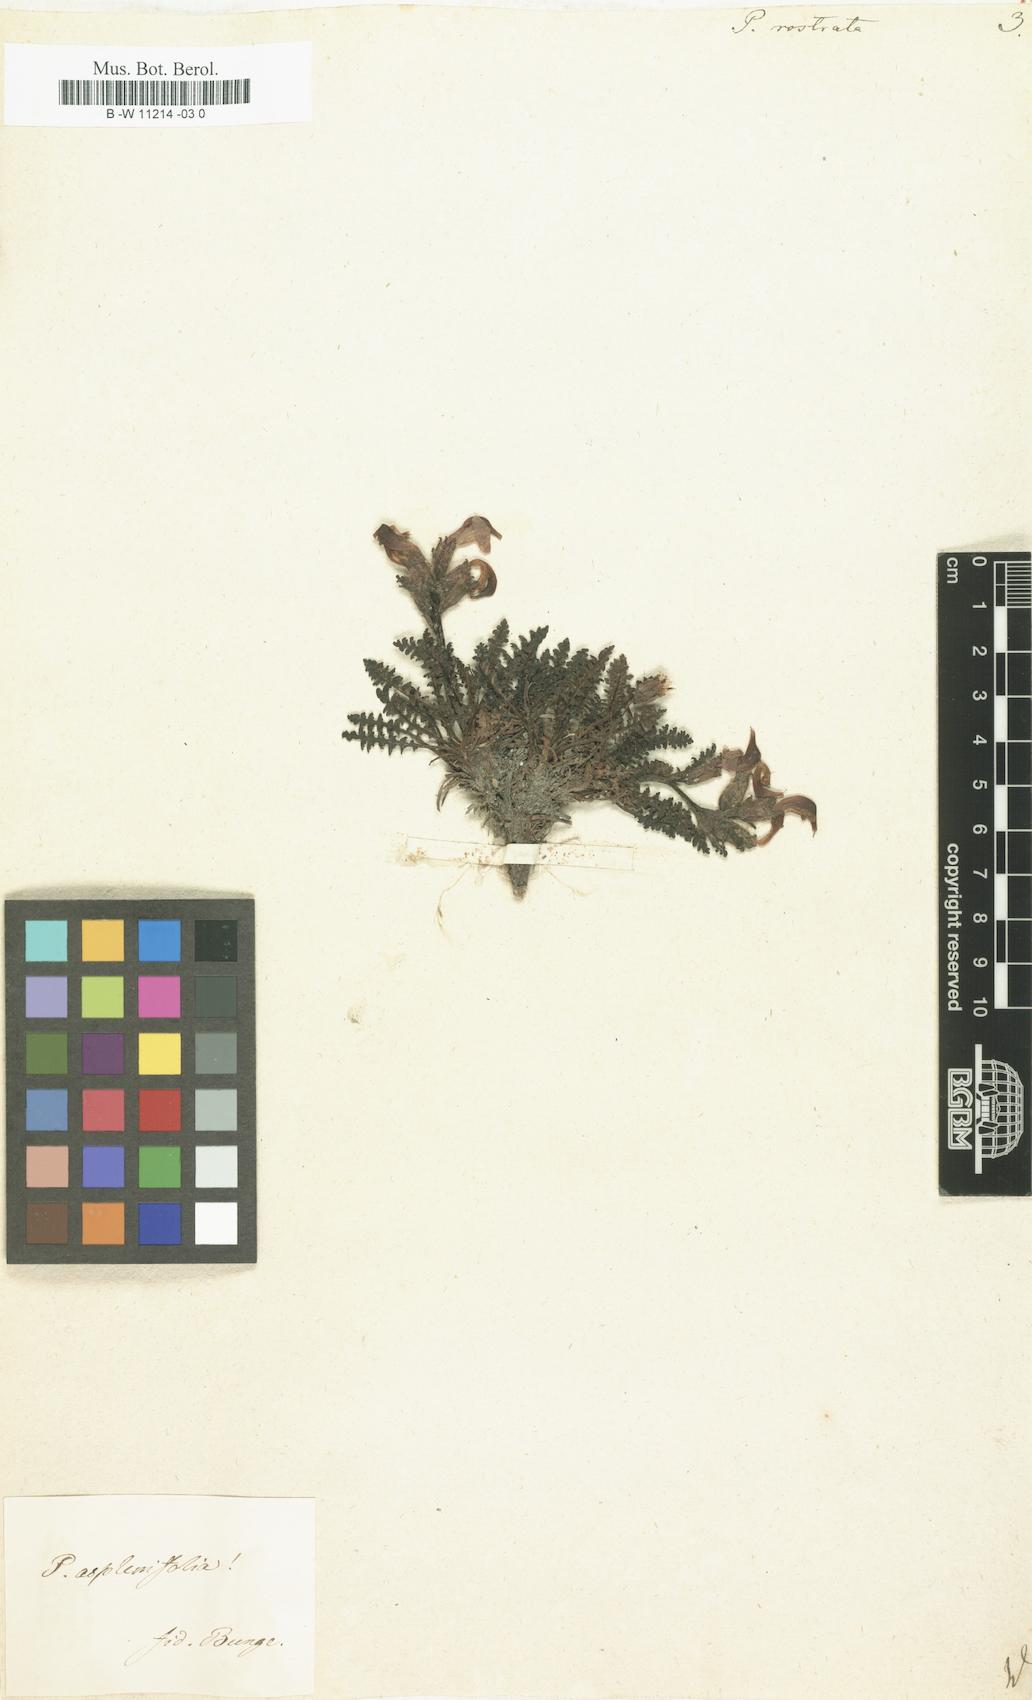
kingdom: Plantae
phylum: Tracheophyta
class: Magnoliopsida
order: Lamiales
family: Orobanchaceae
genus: Pedicularis
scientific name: Pedicularis
